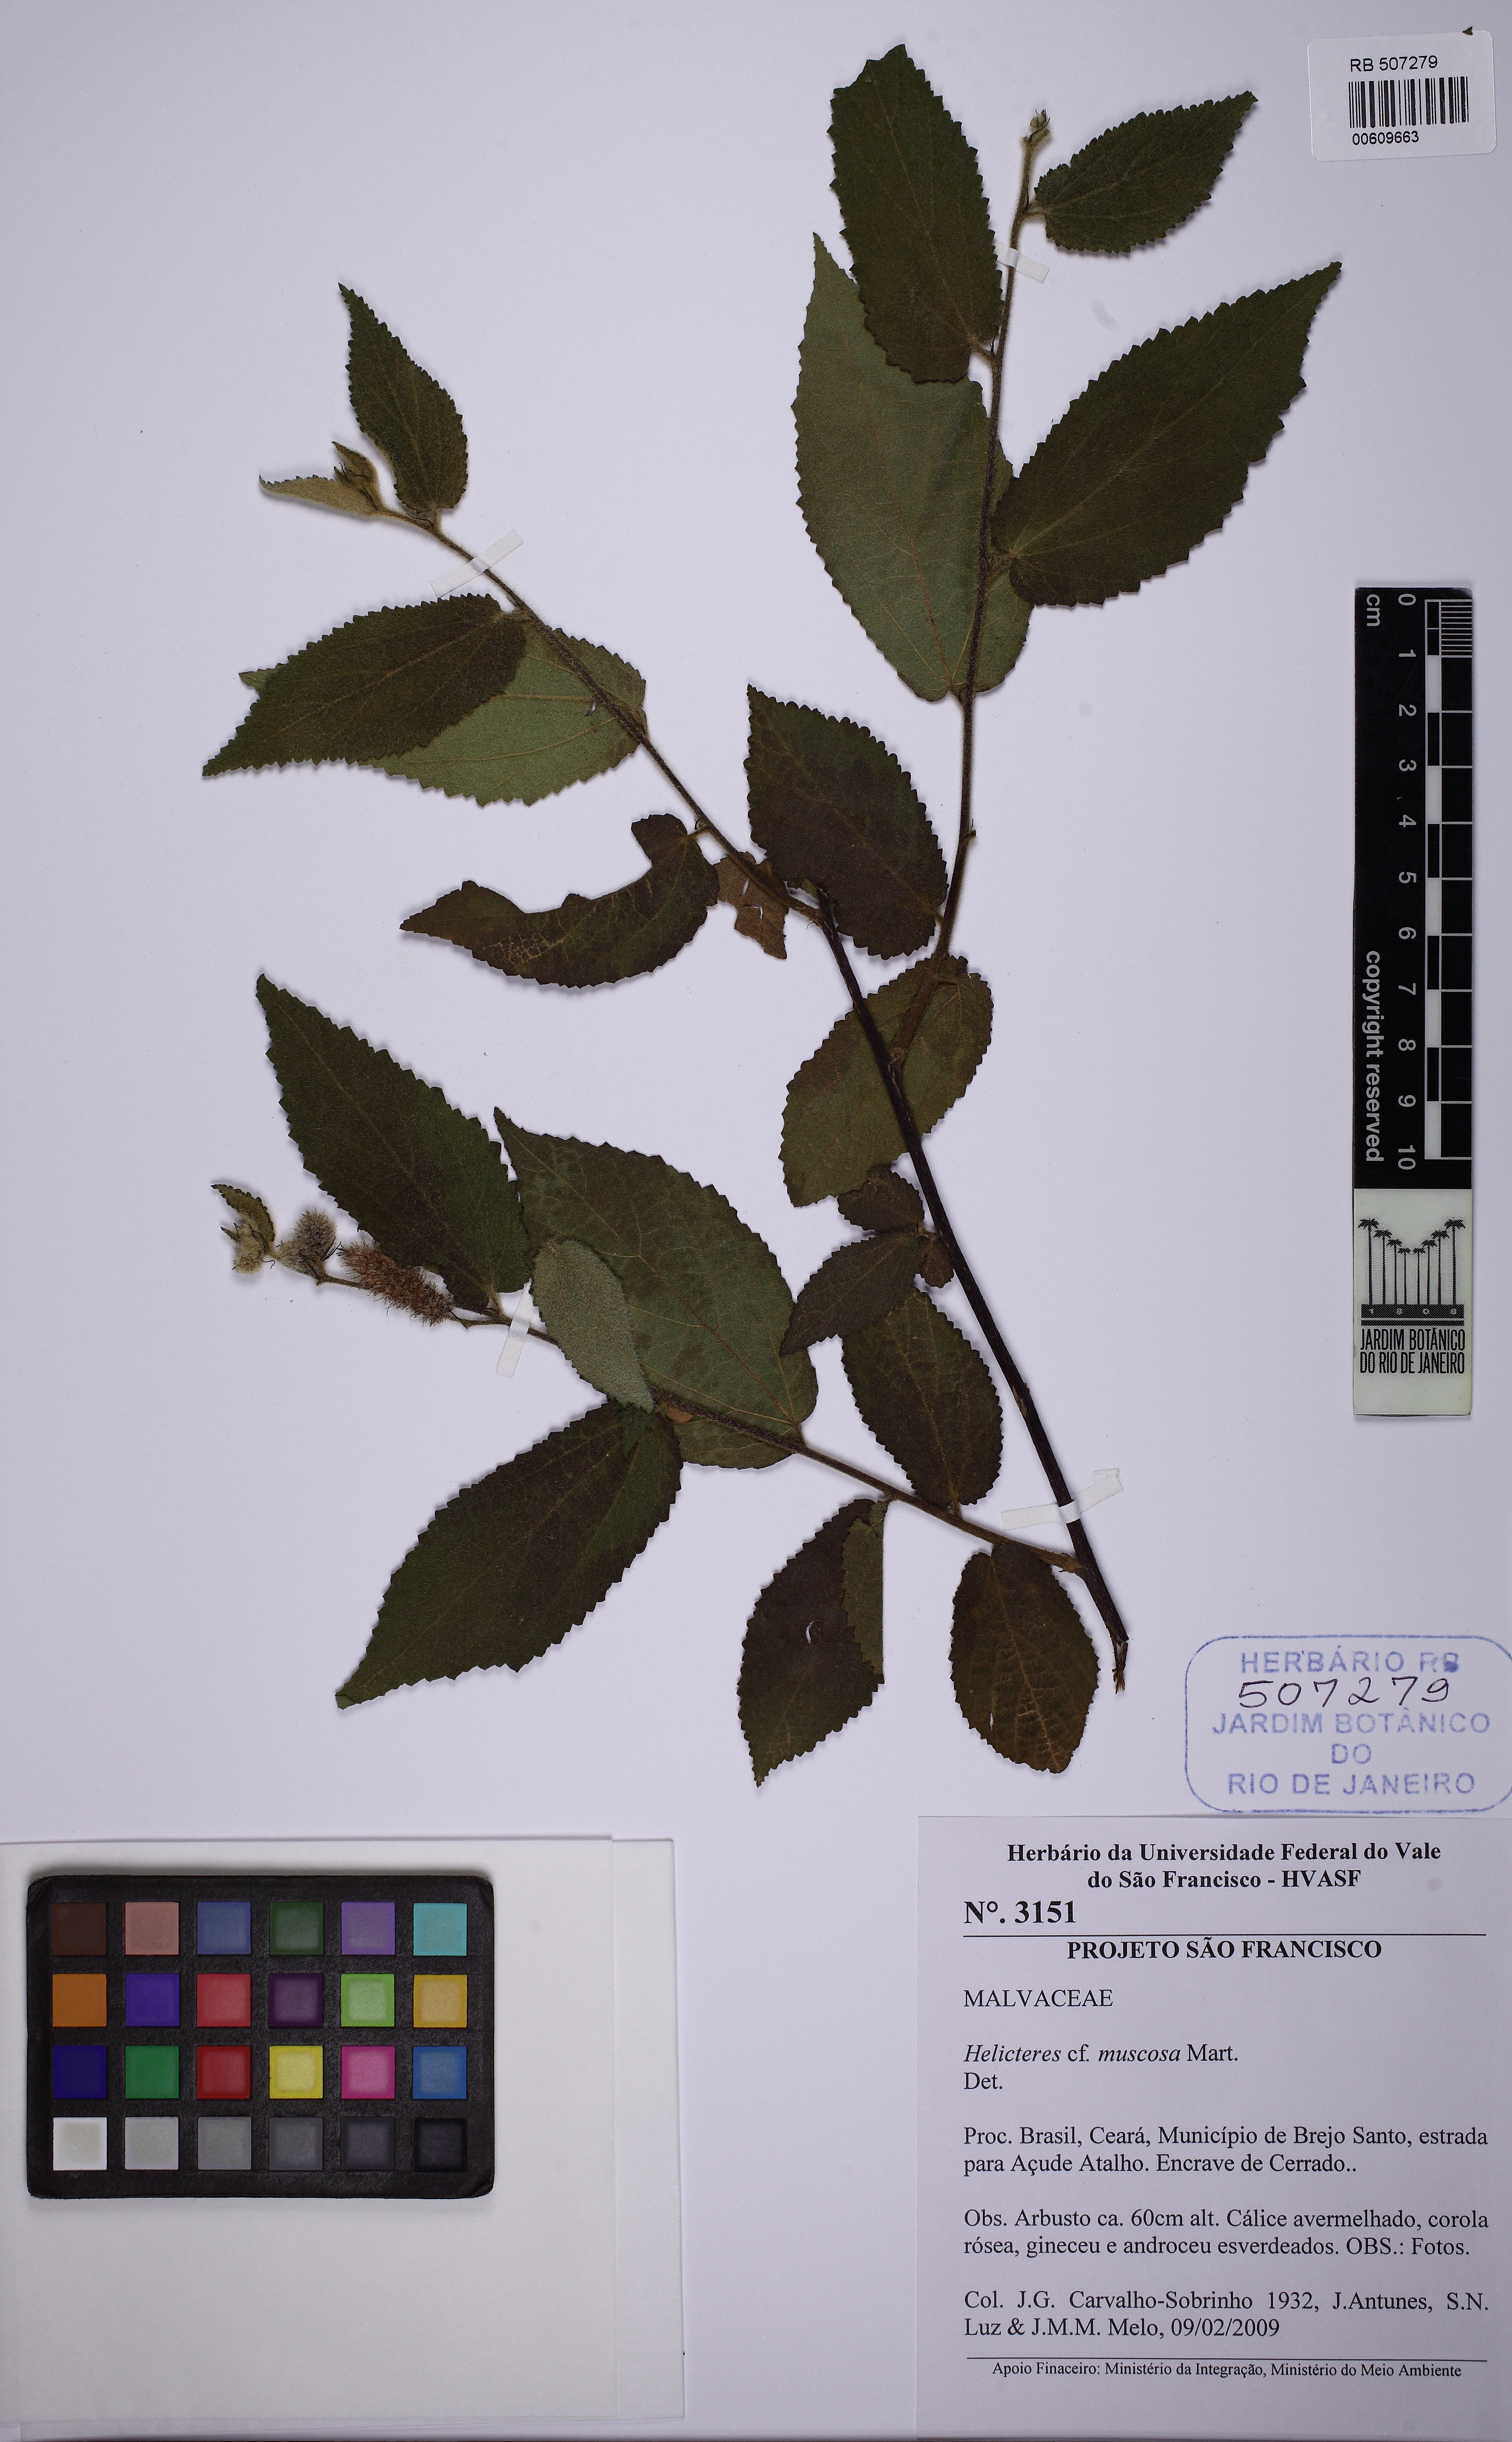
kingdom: Plantae
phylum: Tracheophyta
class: Magnoliopsida
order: Malvales
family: Malvaceae
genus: Helicteres
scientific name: Helicteres muscosa
